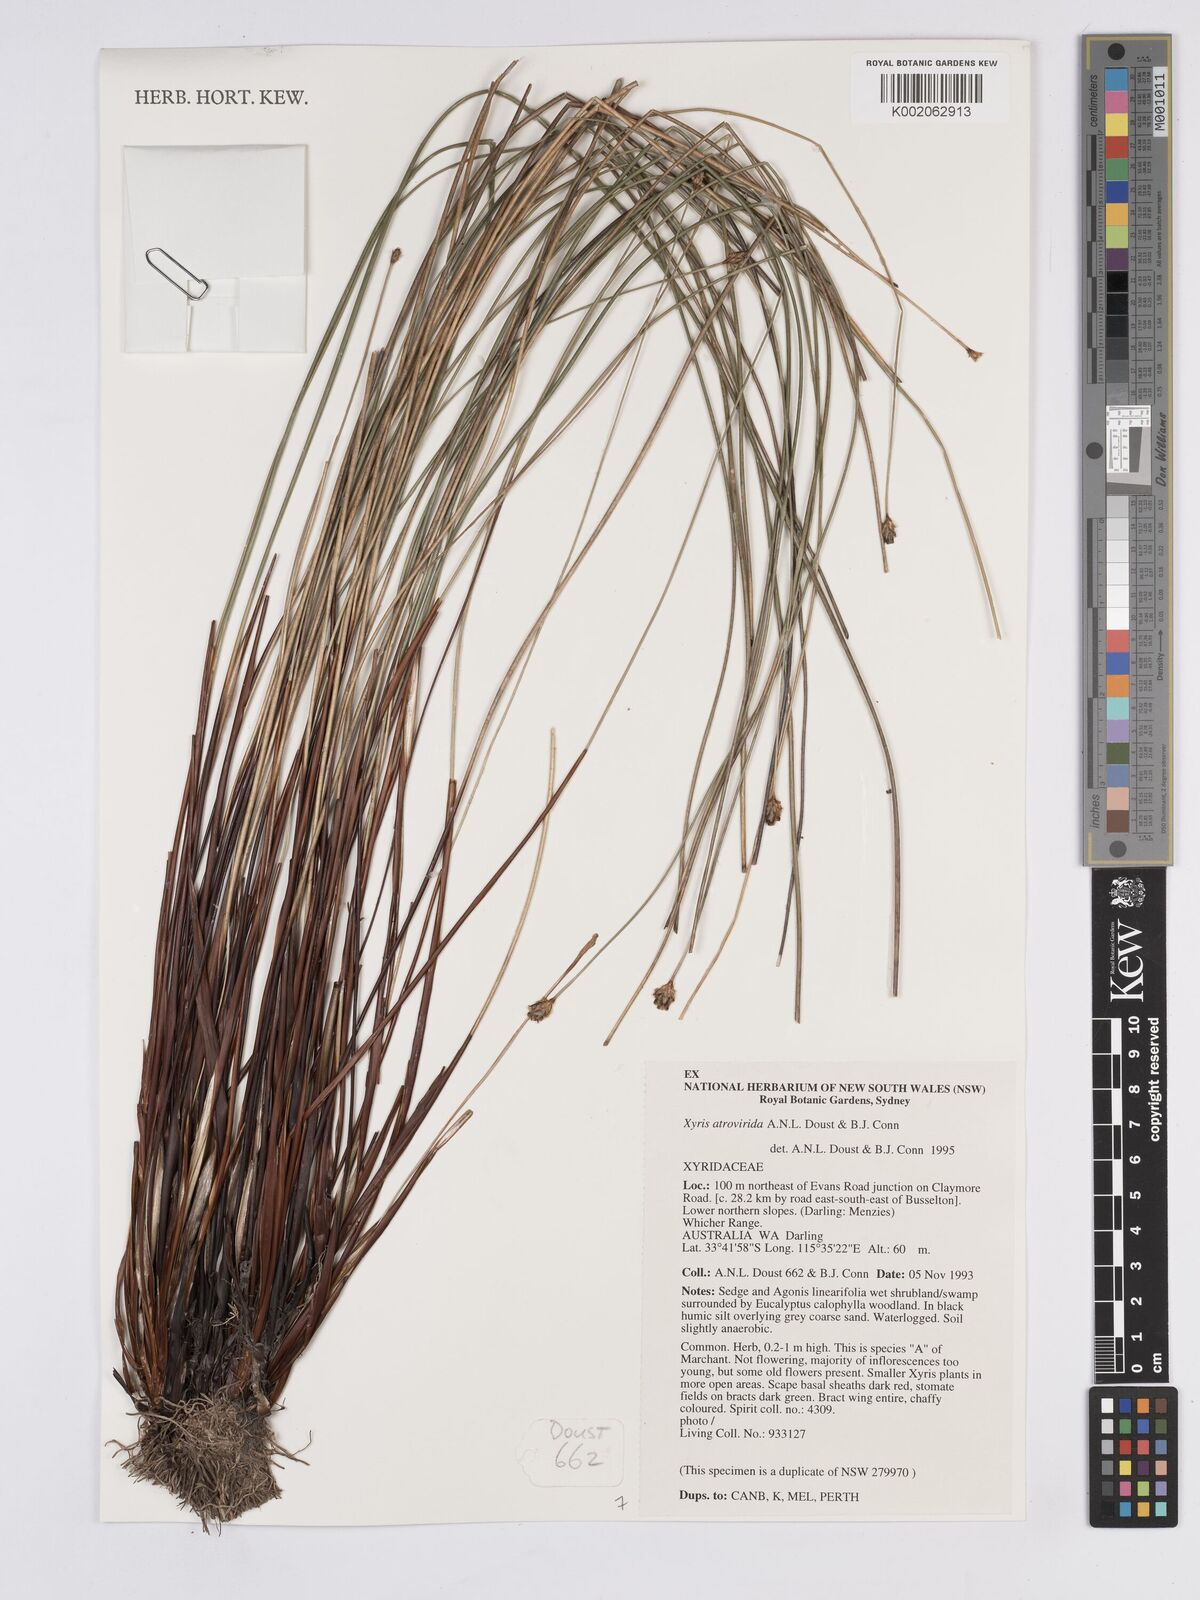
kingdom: Plantae
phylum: Tracheophyta
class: Liliopsida
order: Poales
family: Xyridaceae
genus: Xyris
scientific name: Xyris atrovirida
